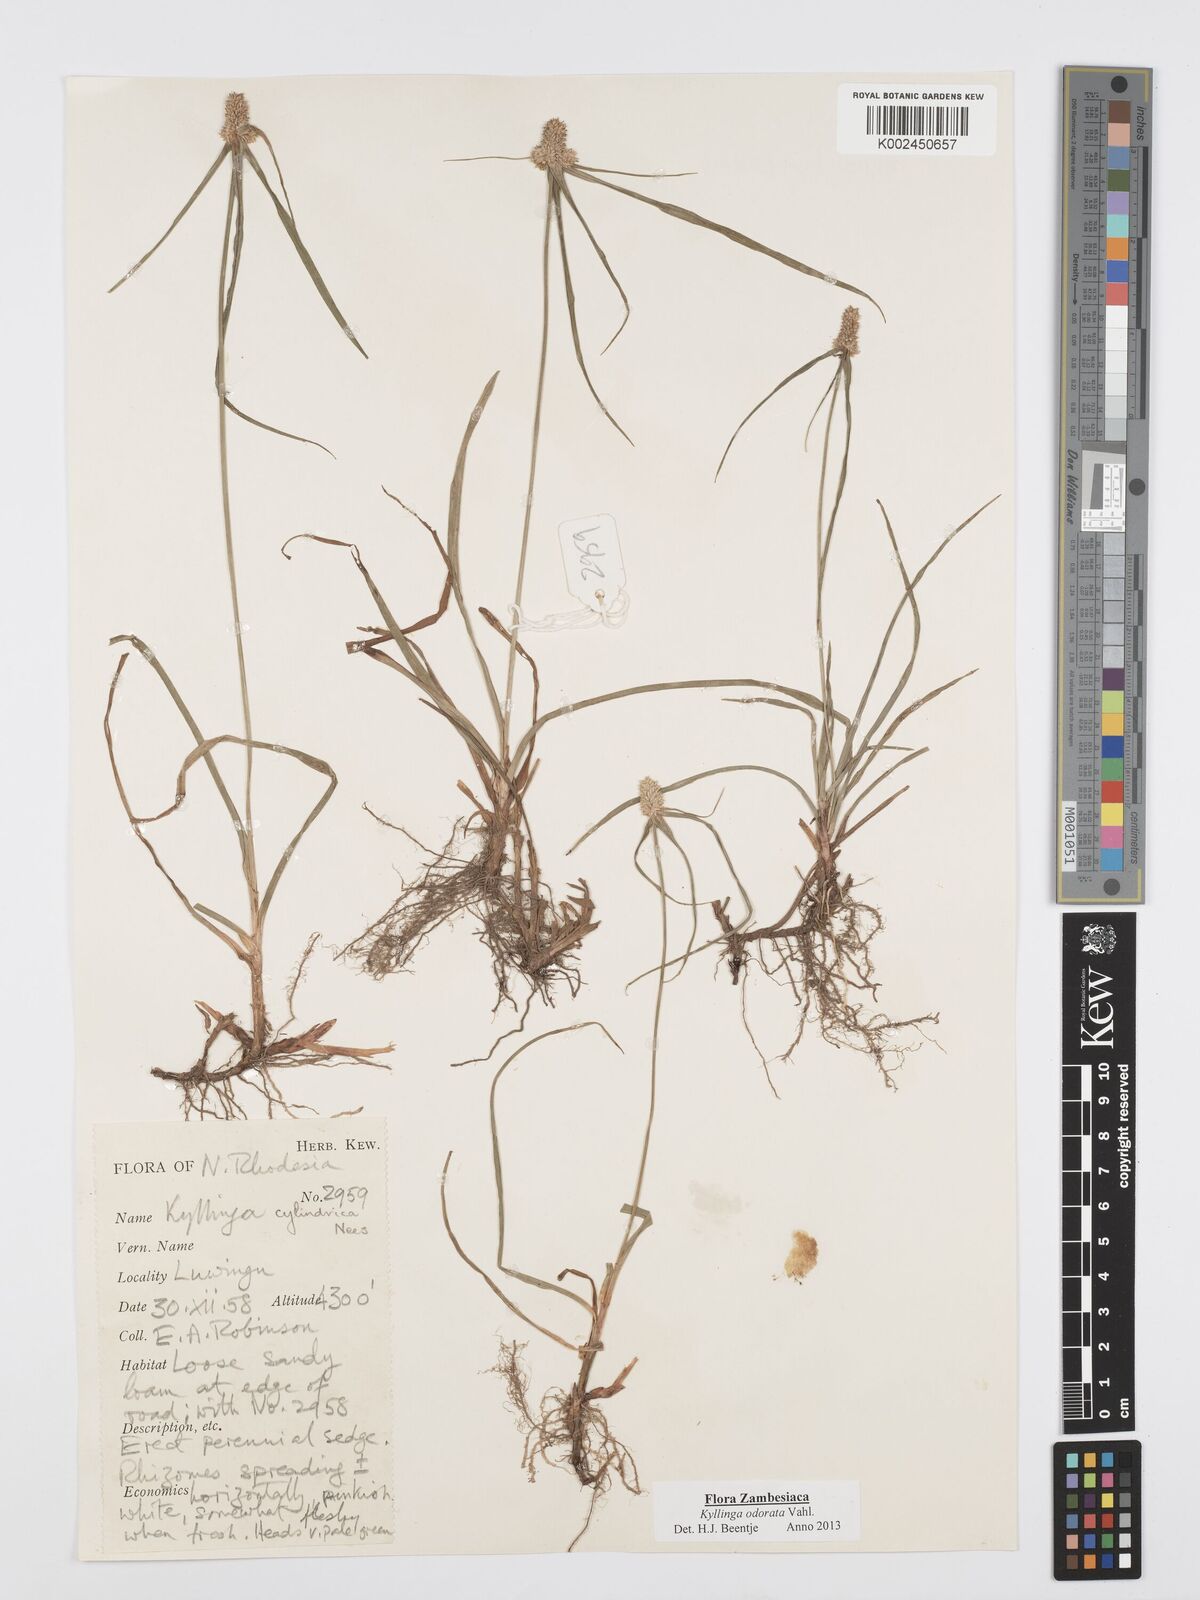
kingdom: Plantae
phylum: Tracheophyta
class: Liliopsida
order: Poales
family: Cyperaceae
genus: Cyperus
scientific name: Cyperus
